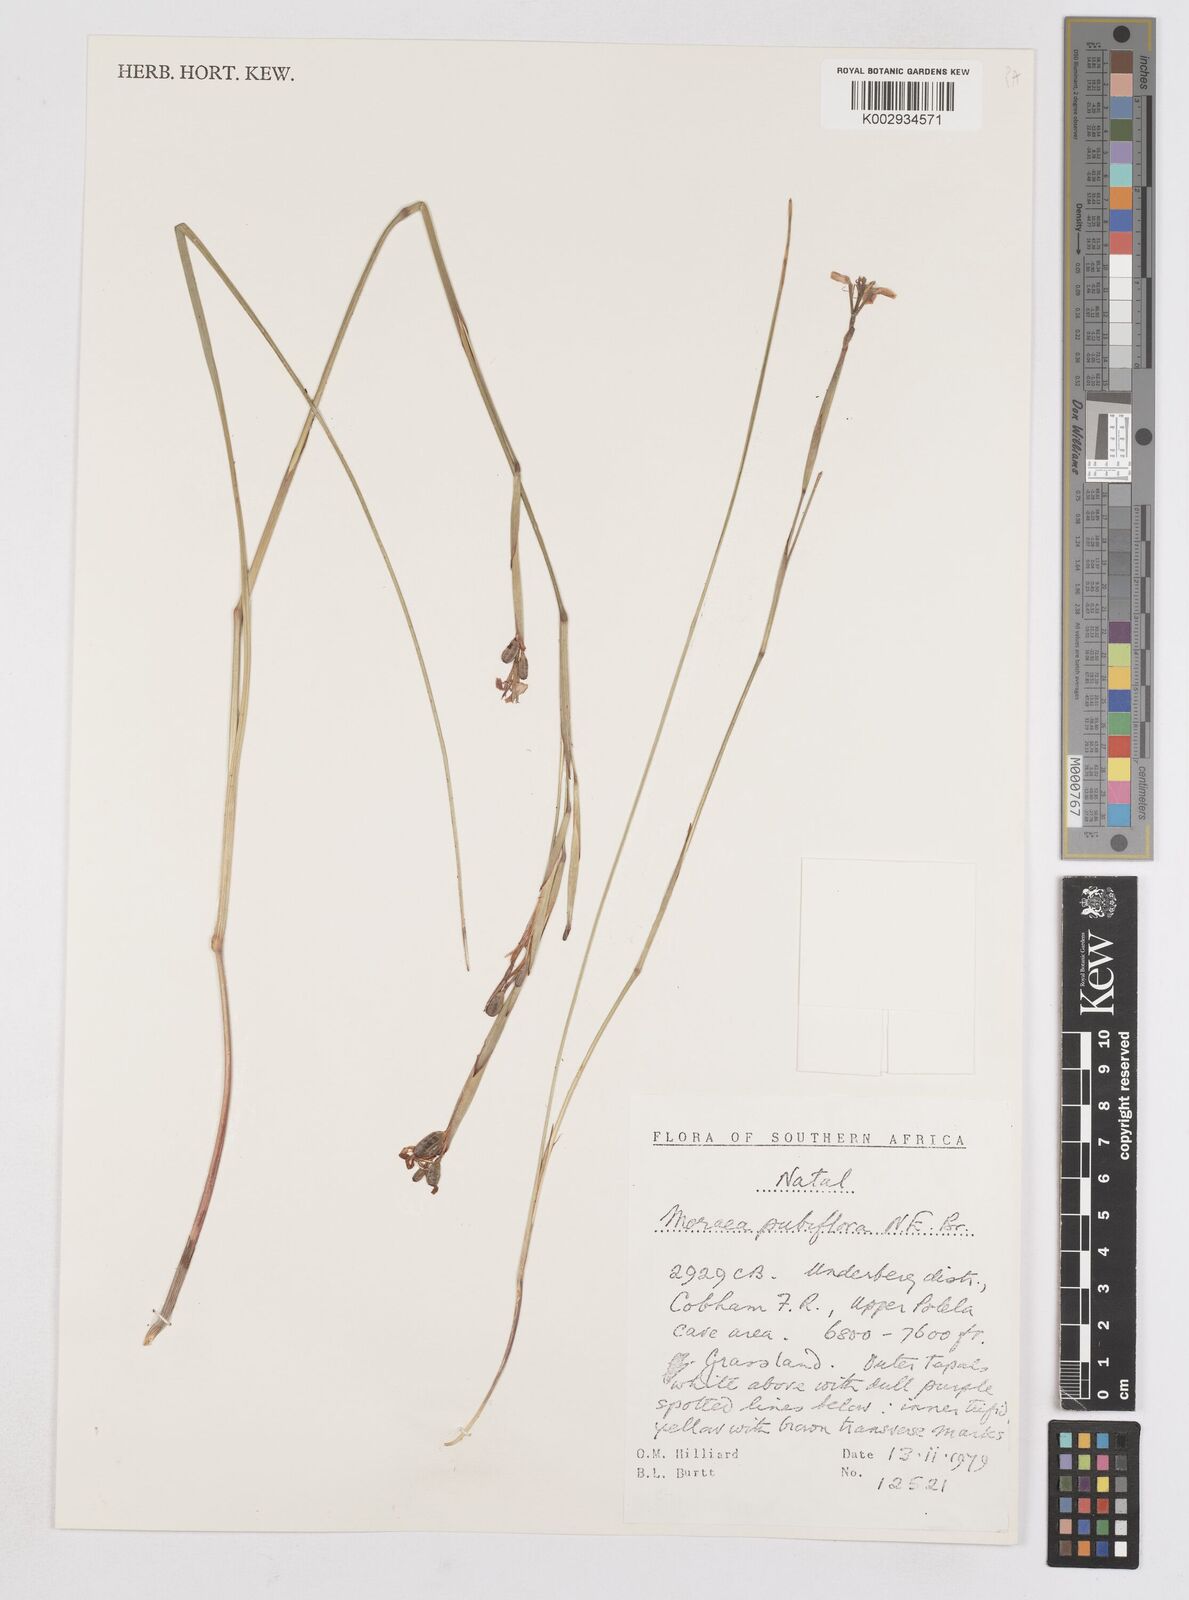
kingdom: Plantae
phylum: Tracheophyta
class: Liliopsida
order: Asparagales
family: Iridaceae
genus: Moraea
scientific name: Moraea pubiflora
